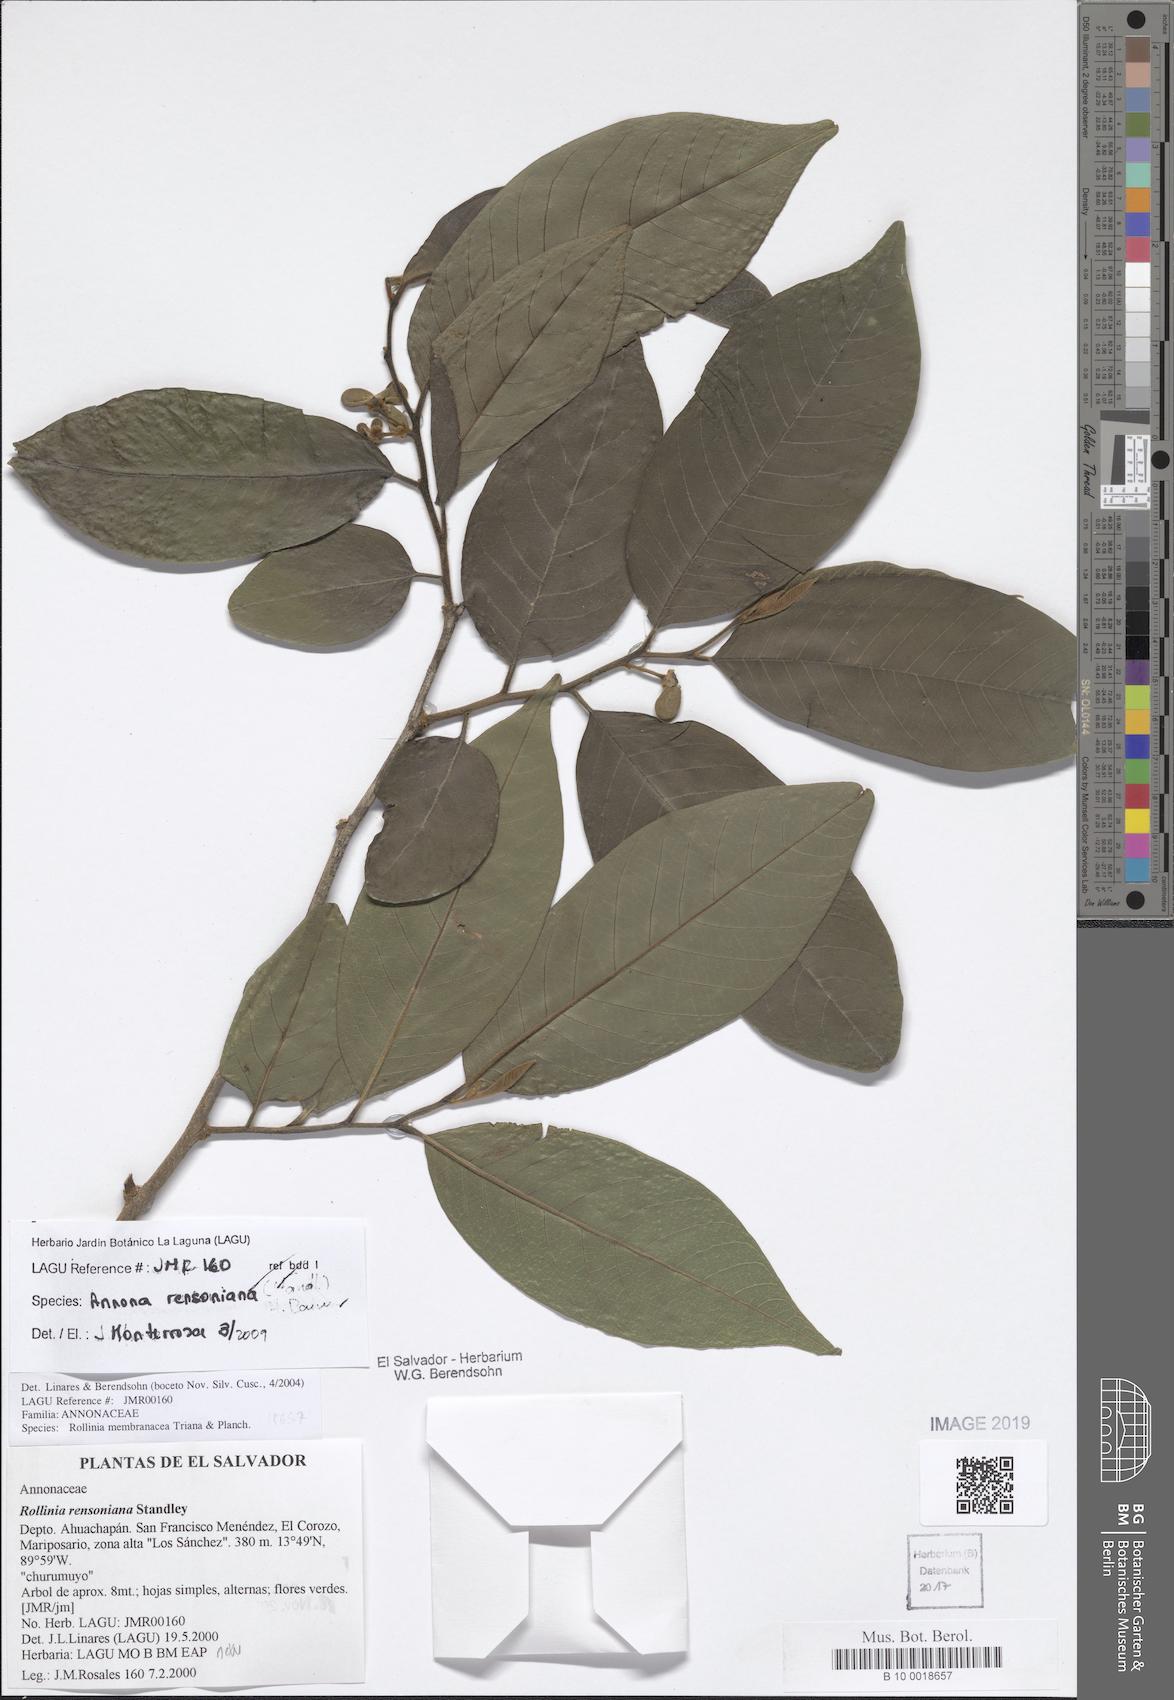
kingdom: Plantae
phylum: Tracheophyta
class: Magnoliopsida
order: Magnoliales
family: Annonaceae
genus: Annona
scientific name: Annona rensoniana
